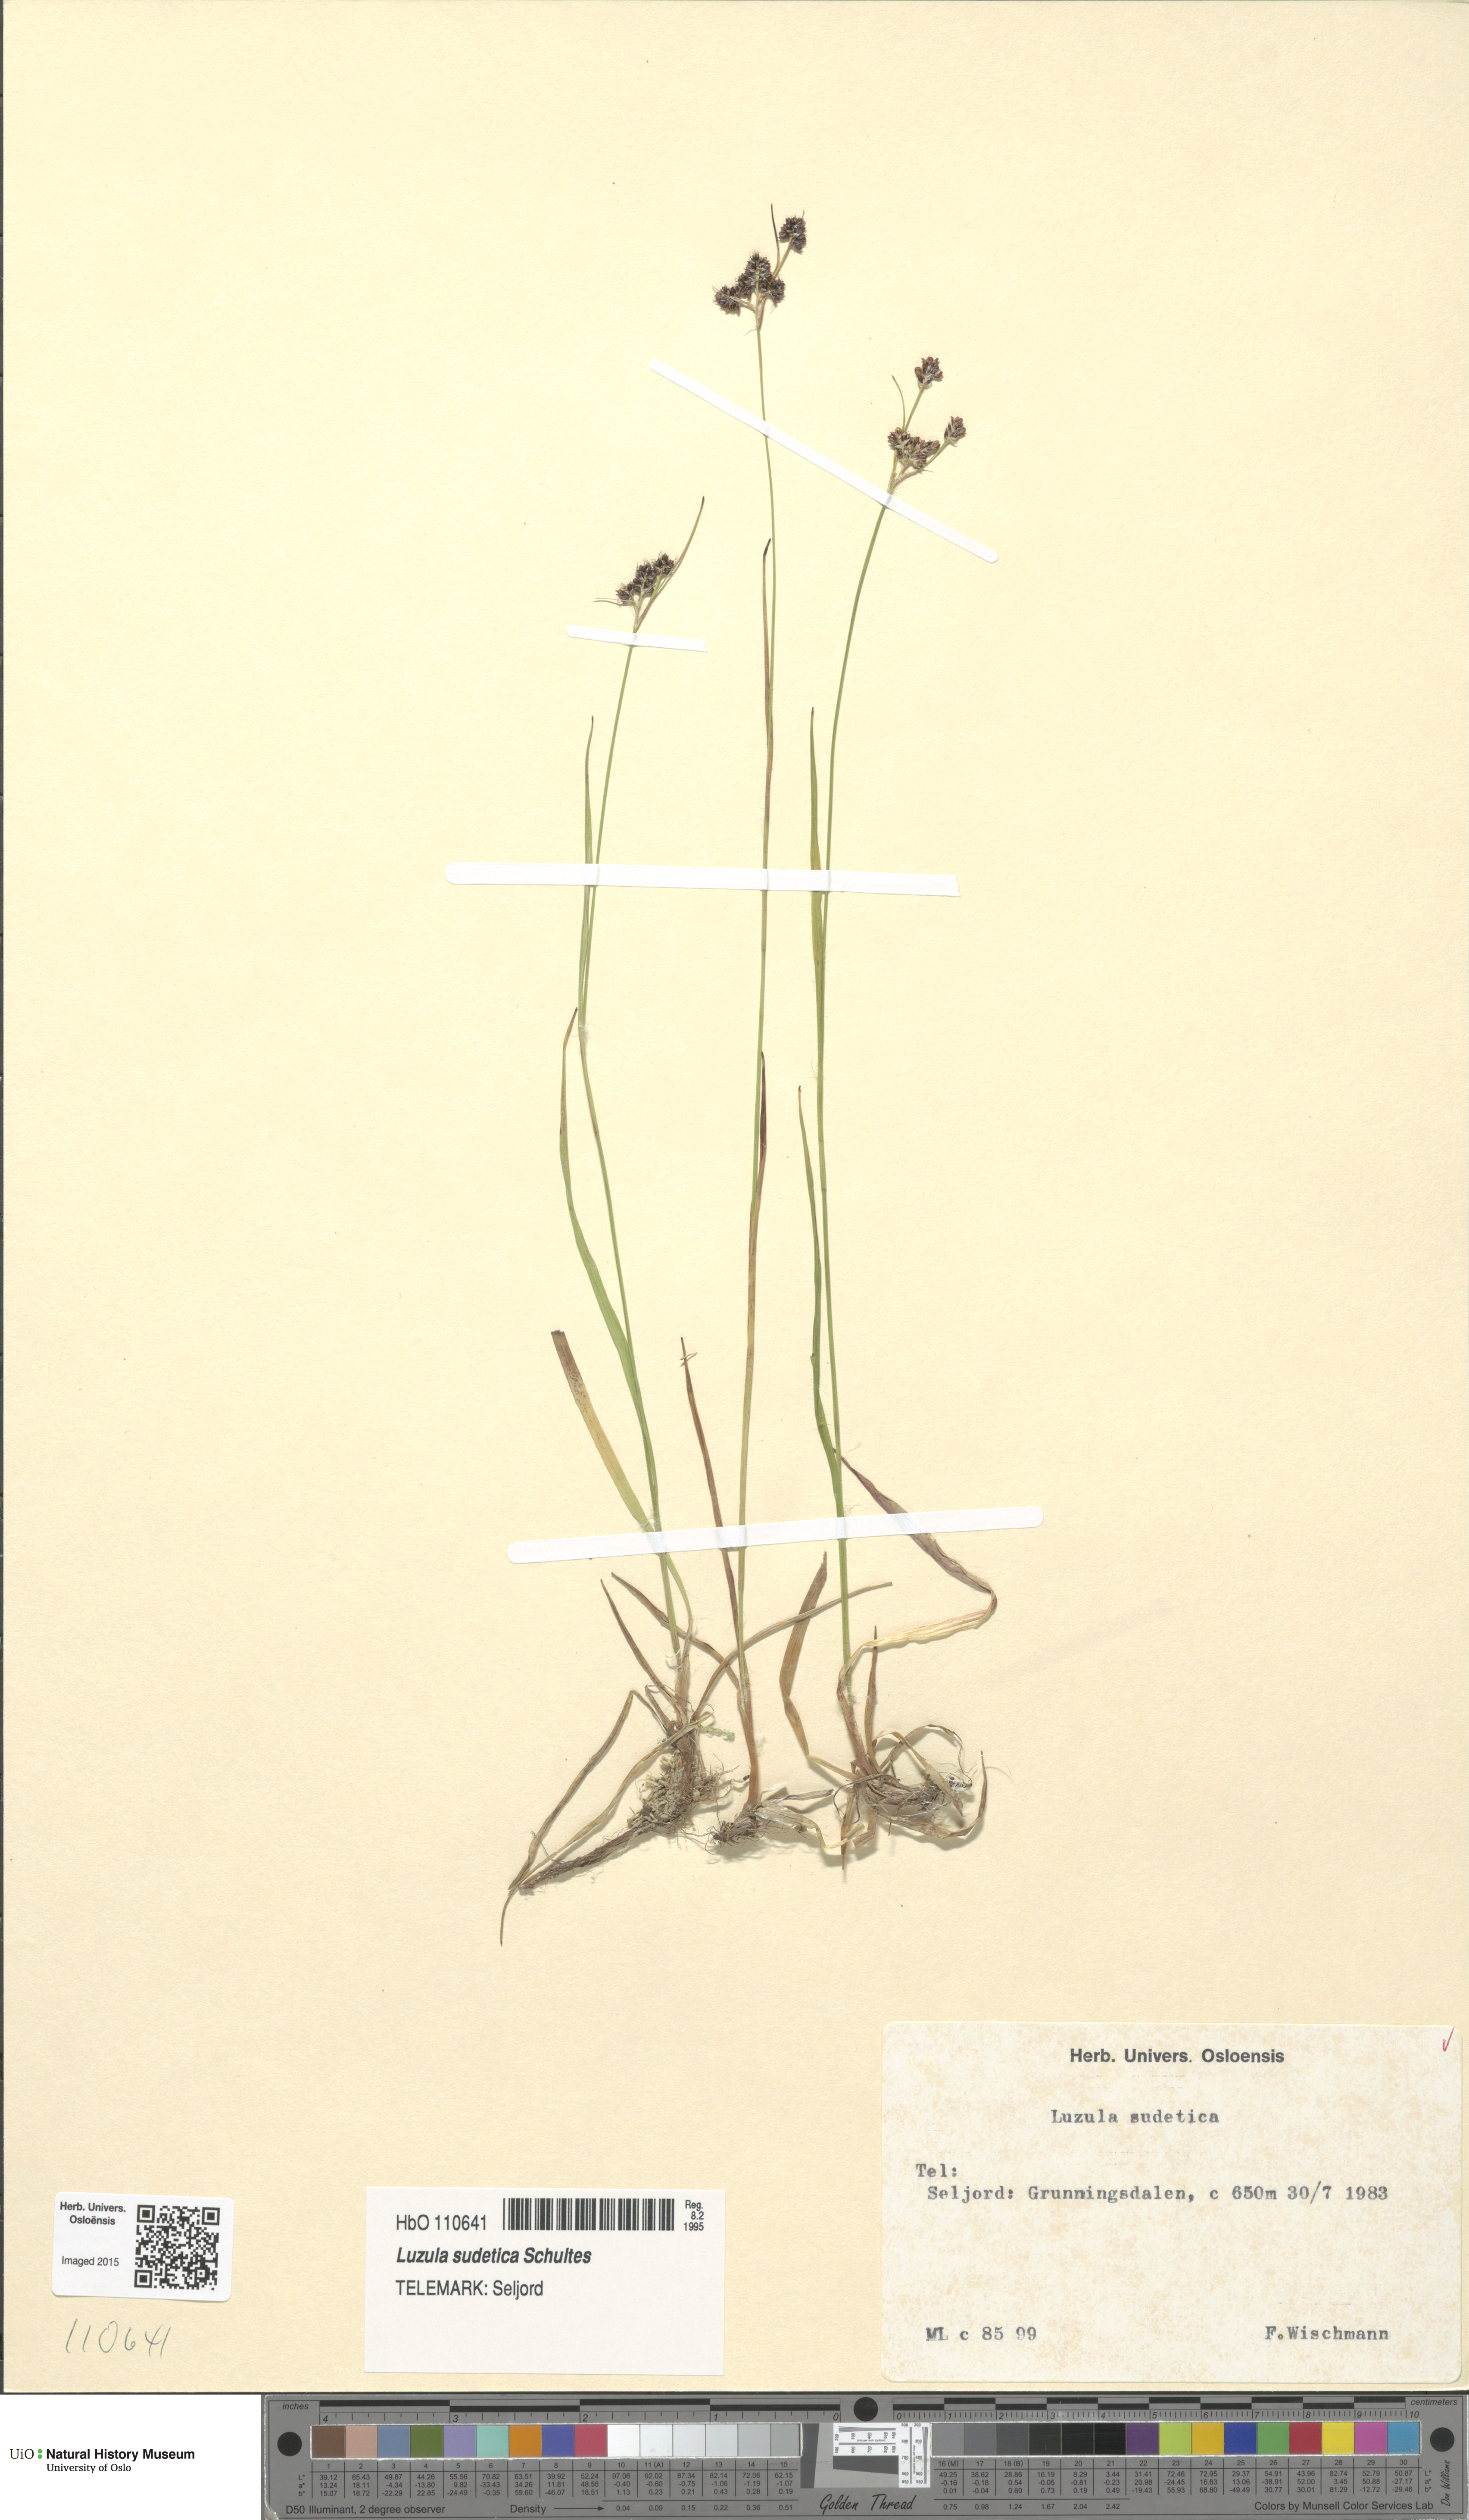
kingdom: Plantae
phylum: Tracheophyta
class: Liliopsida
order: Poales
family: Juncaceae
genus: Luzula
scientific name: Luzula sudetica
